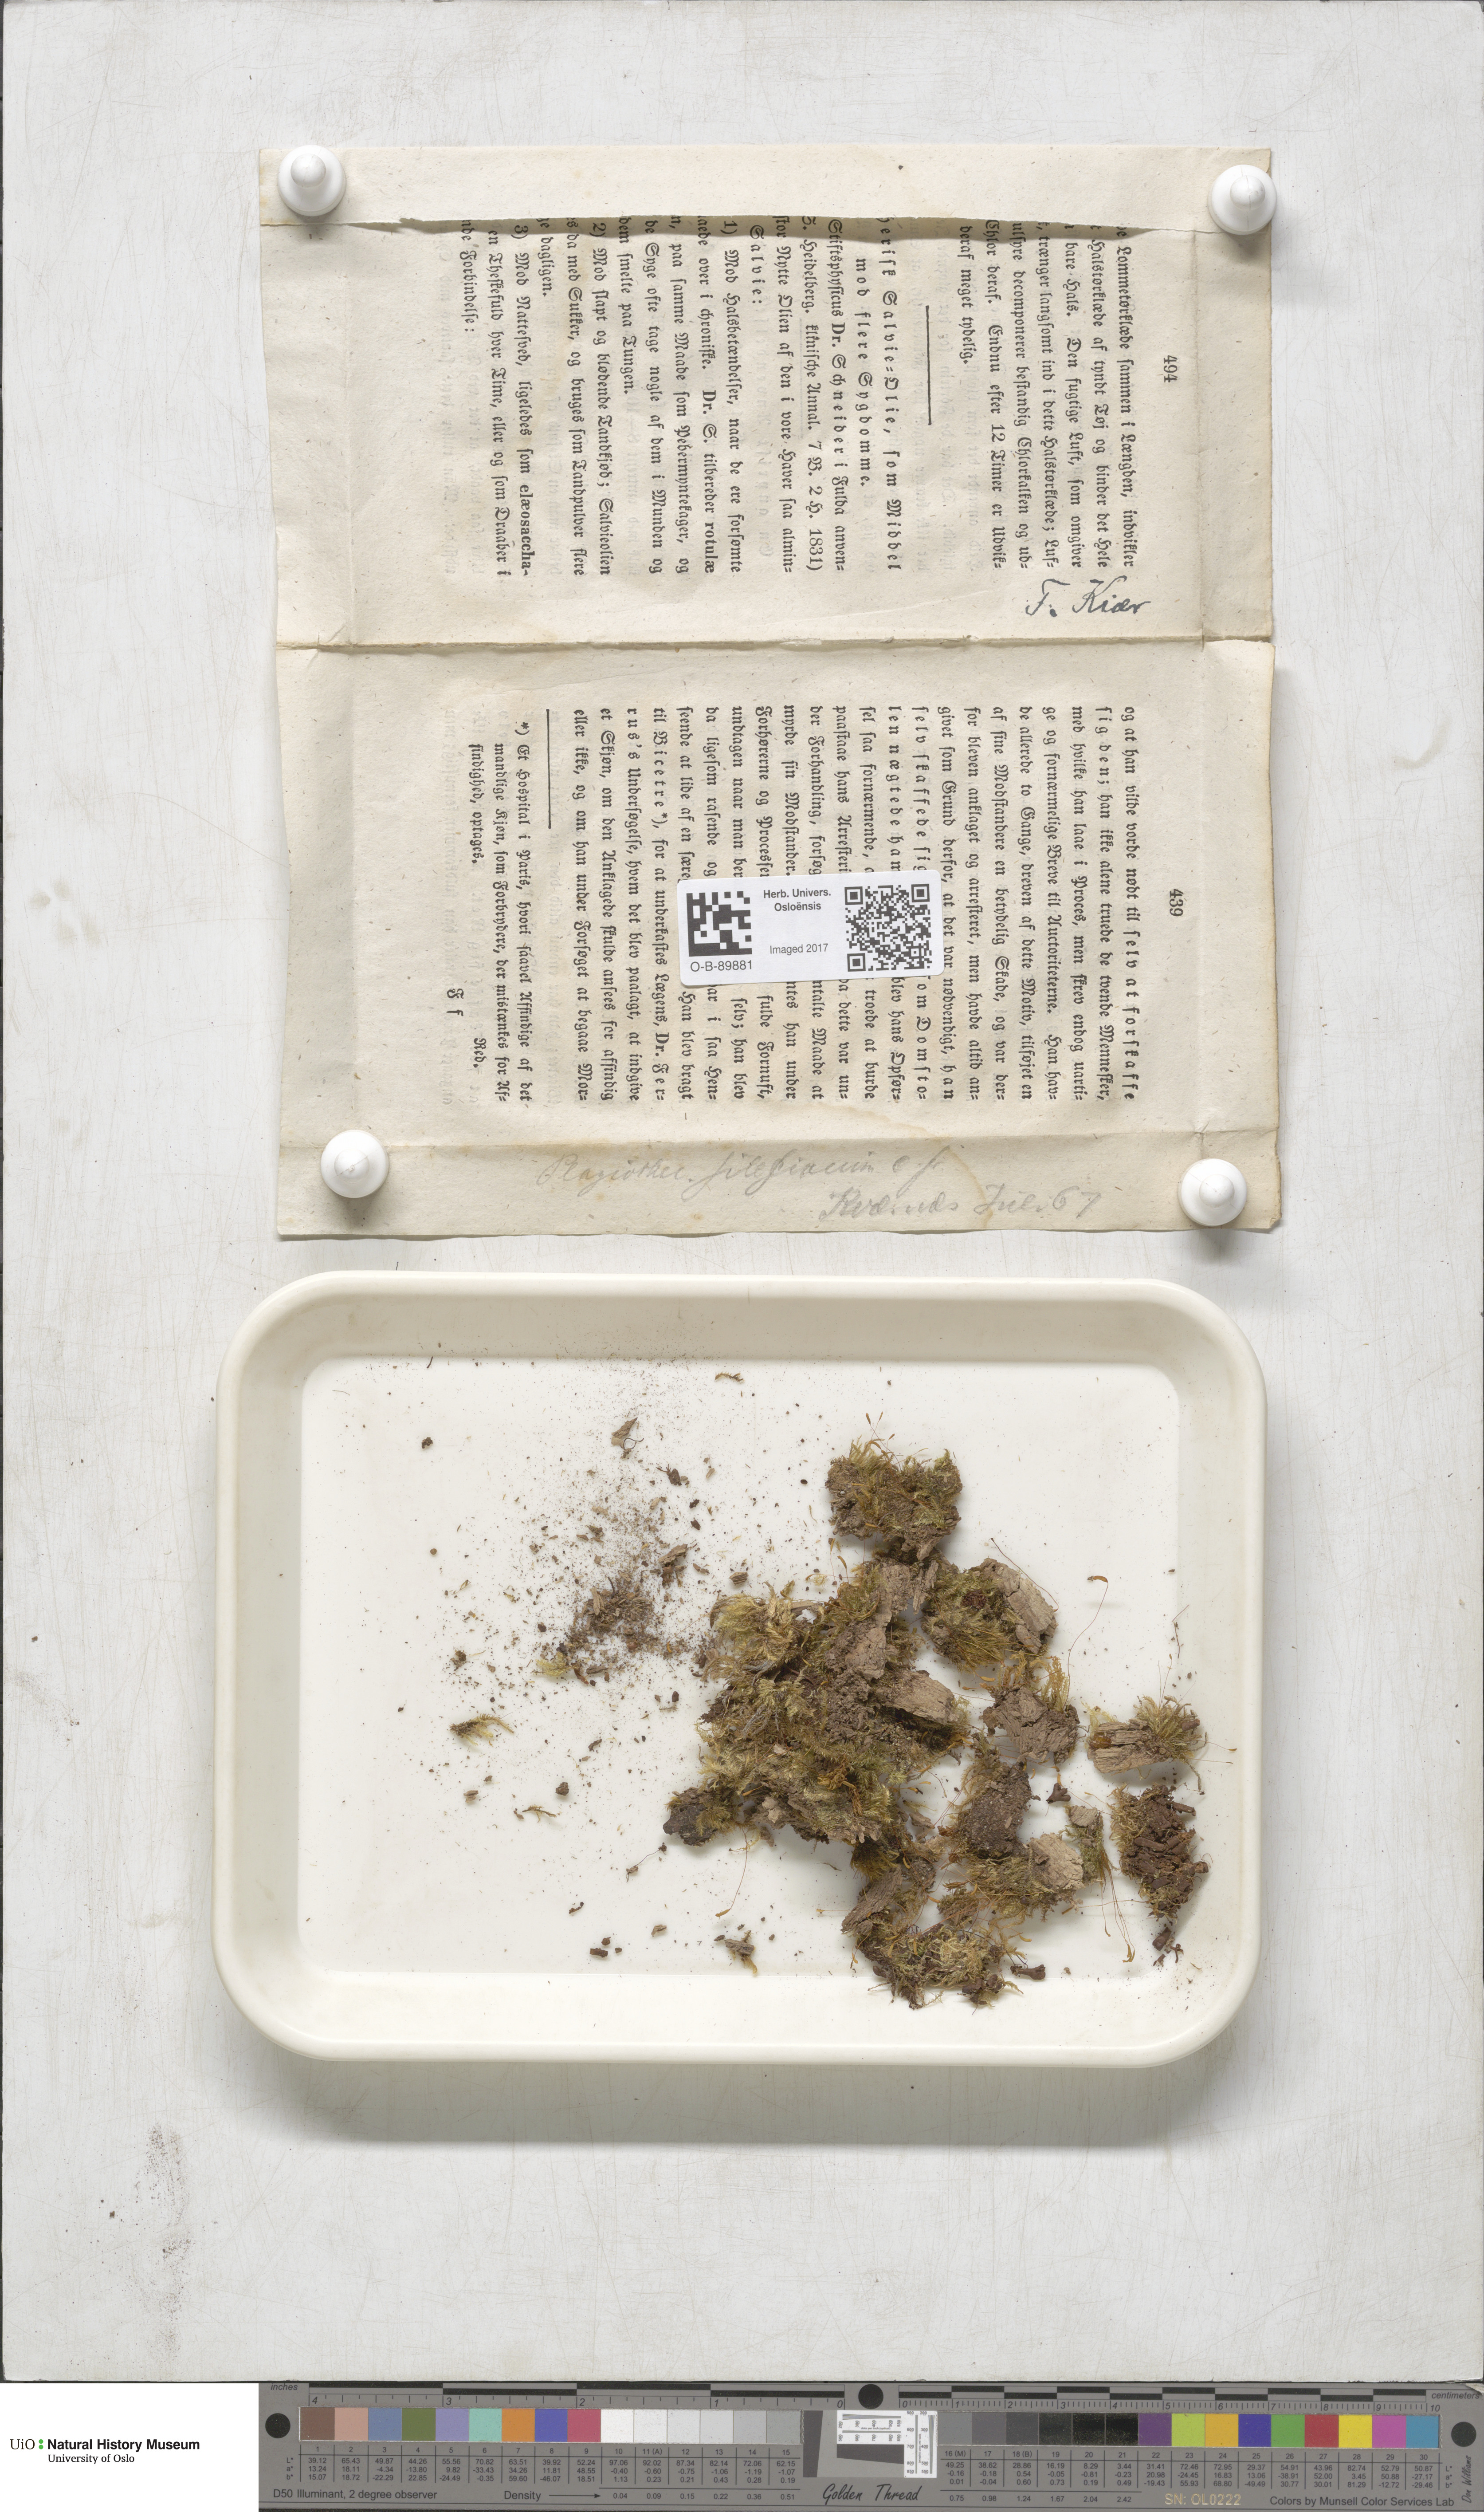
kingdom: Plantae
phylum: Bryophyta
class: Bryopsida
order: Hypnales
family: Plagiotheciaceae
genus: Herzogiella
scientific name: Herzogiella seligeri
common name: Silesian feather-moss
